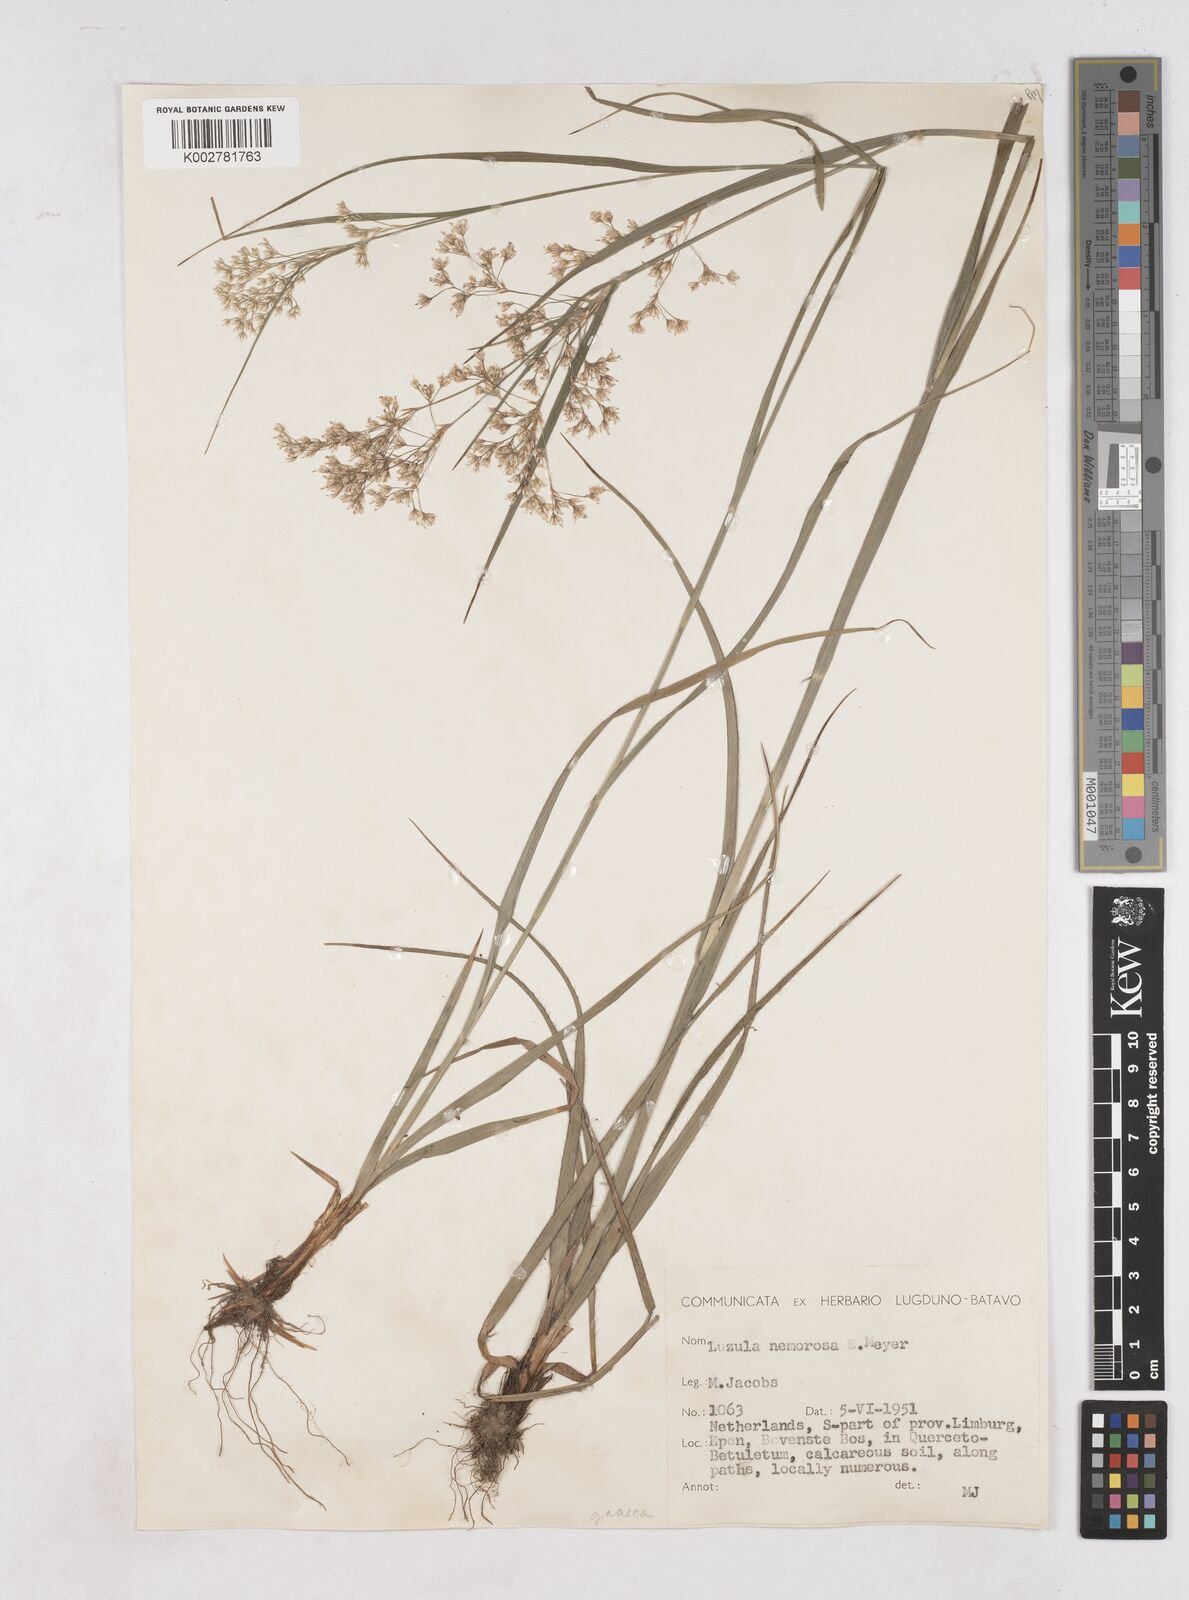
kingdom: Plantae
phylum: Tracheophyta
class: Liliopsida
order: Poales
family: Juncaceae
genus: Luzula
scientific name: Luzula luzuloides
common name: White wood-rush
